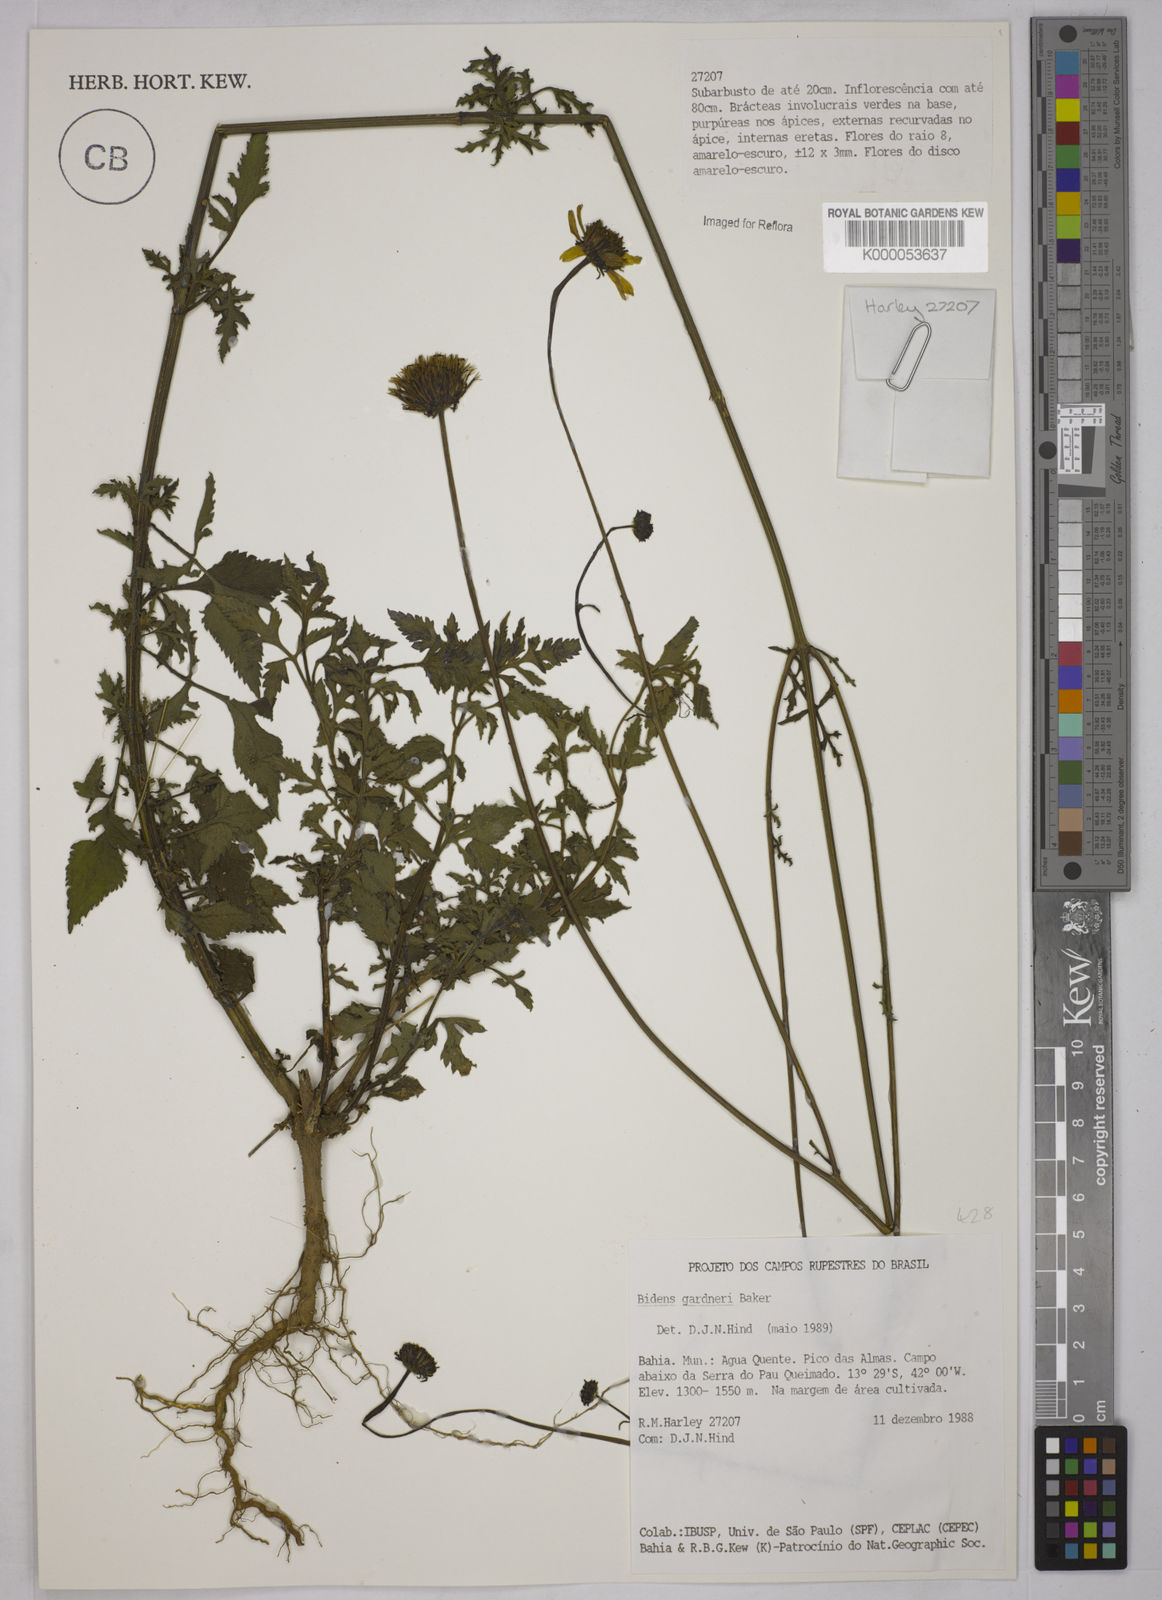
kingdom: Plantae
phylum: Tracheophyta
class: Magnoliopsida
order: Asterales
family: Asteraceae
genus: Bidens
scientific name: Bidens gardneri
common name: Ridge beggartick
